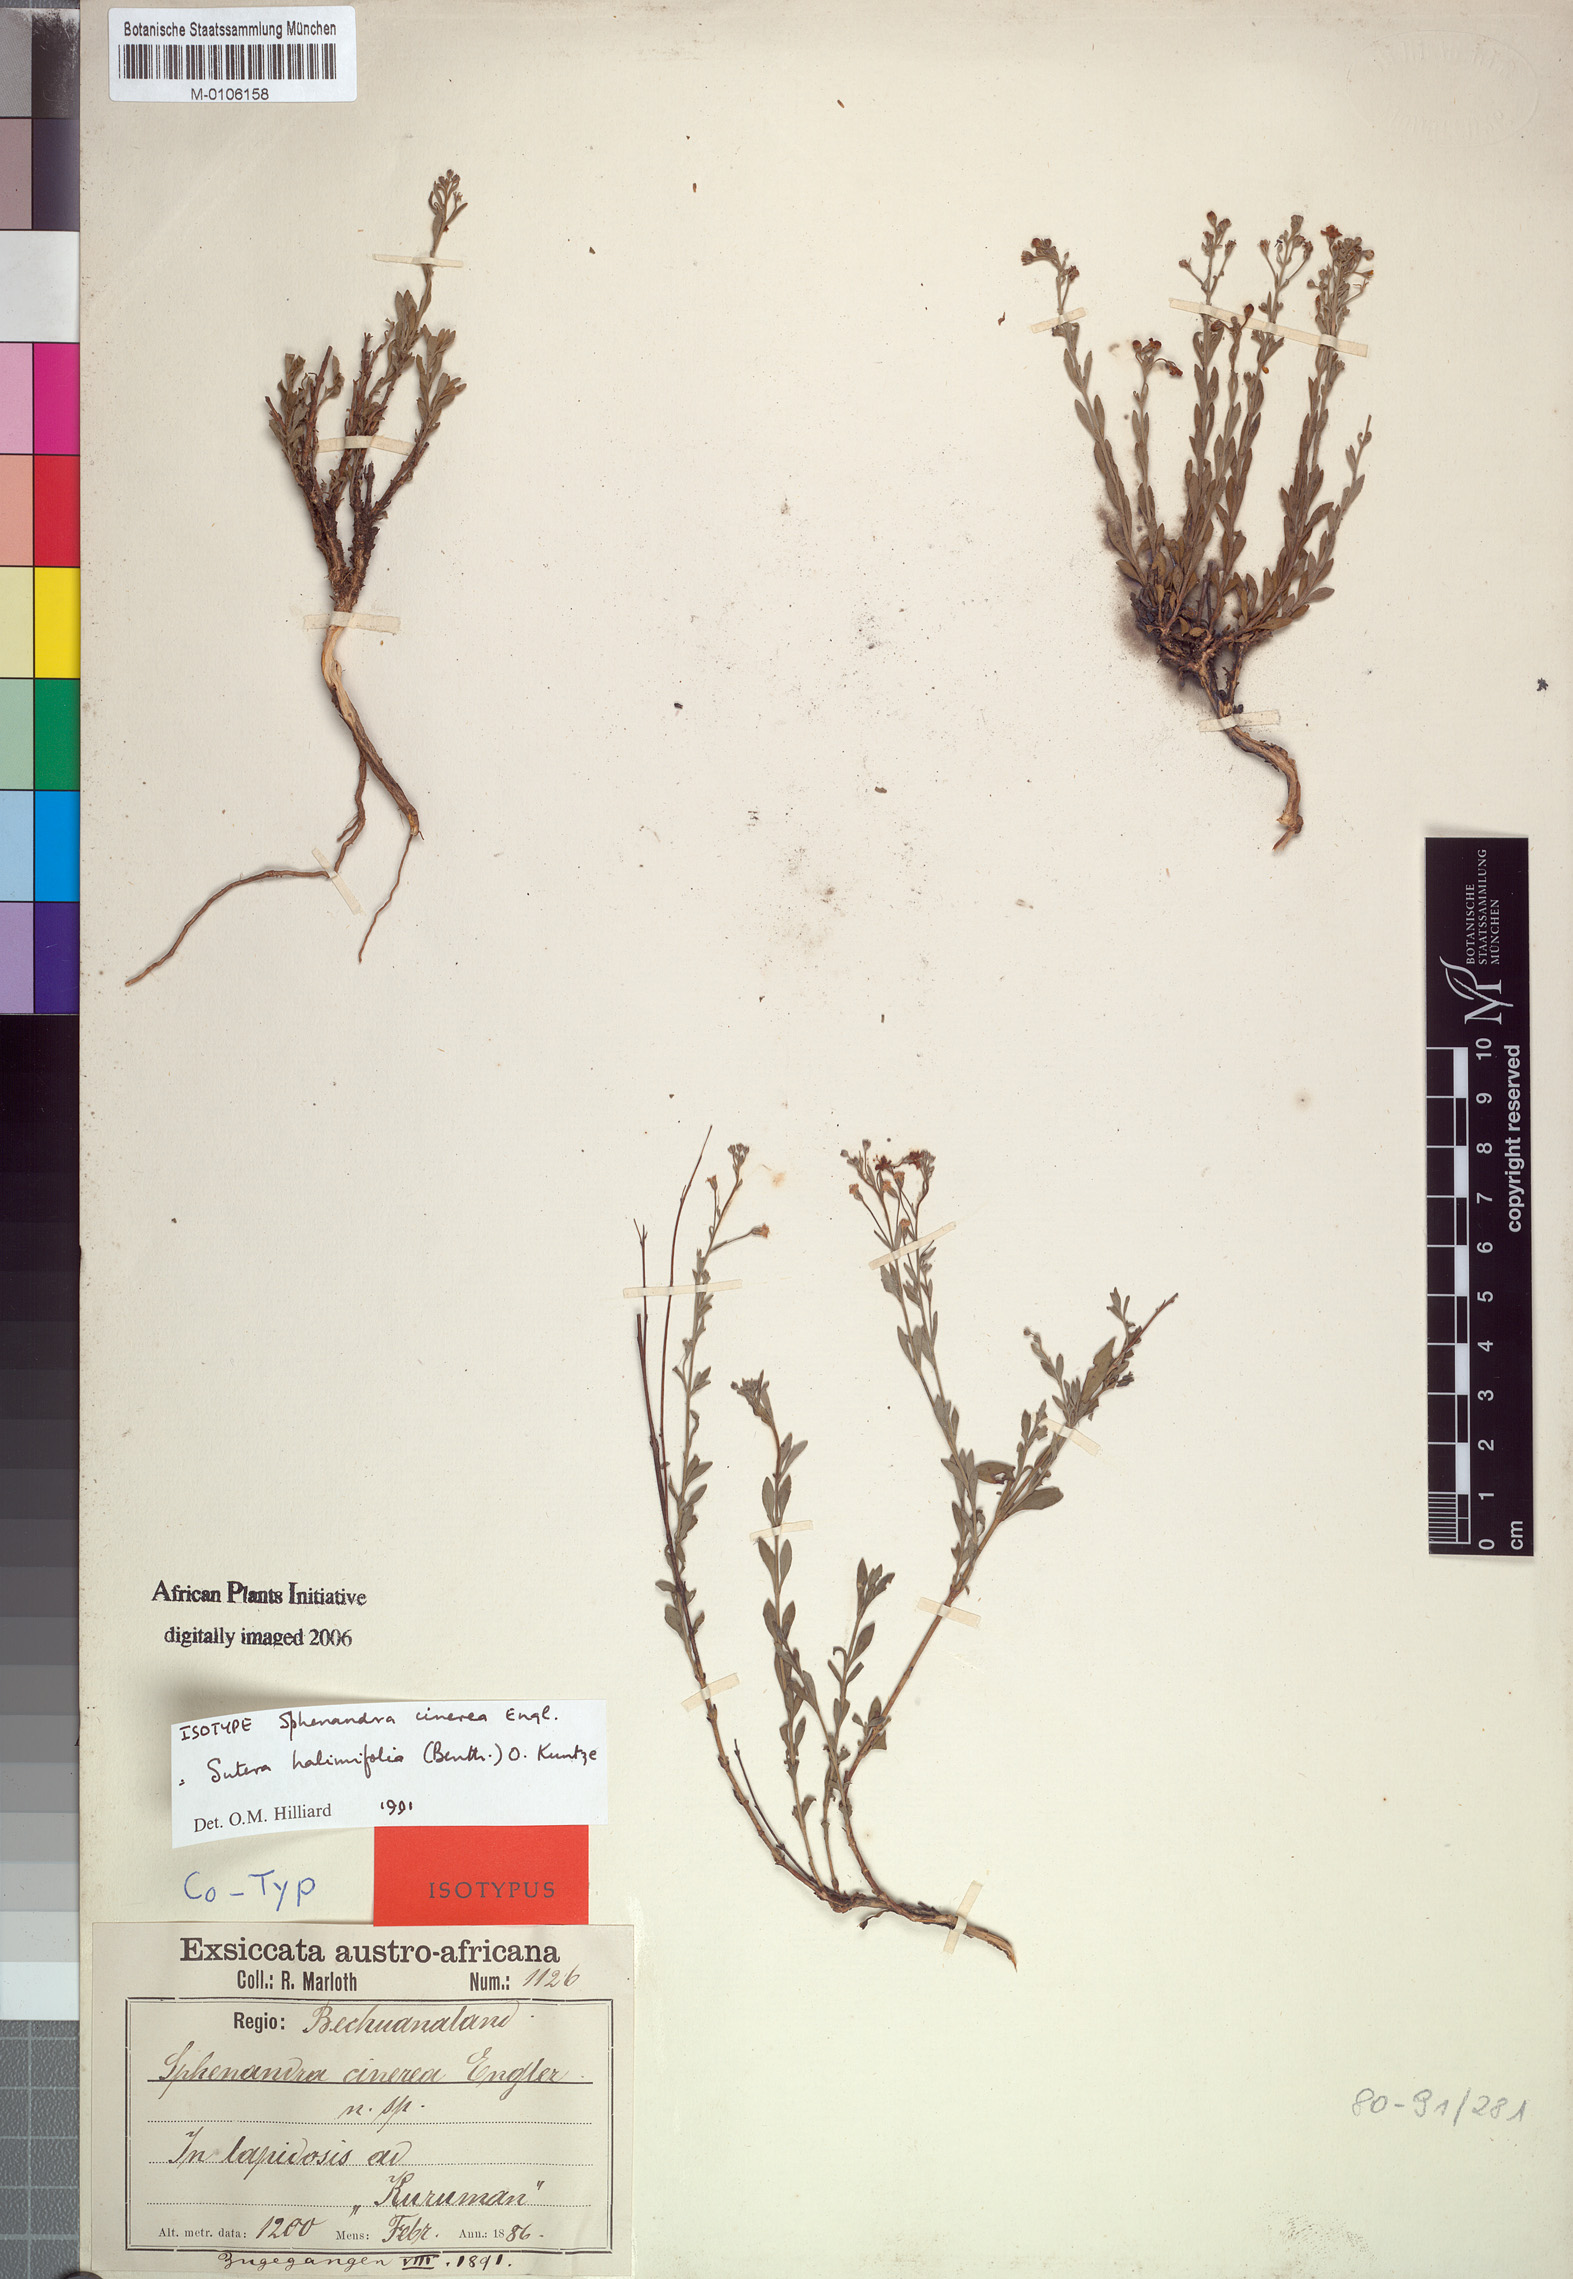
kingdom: Plantae
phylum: Tracheophyta
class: Magnoliopsida
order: Lamiales
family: Scrophulariaceae
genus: Chaenostoma
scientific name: Chaenostoma halimifolium
